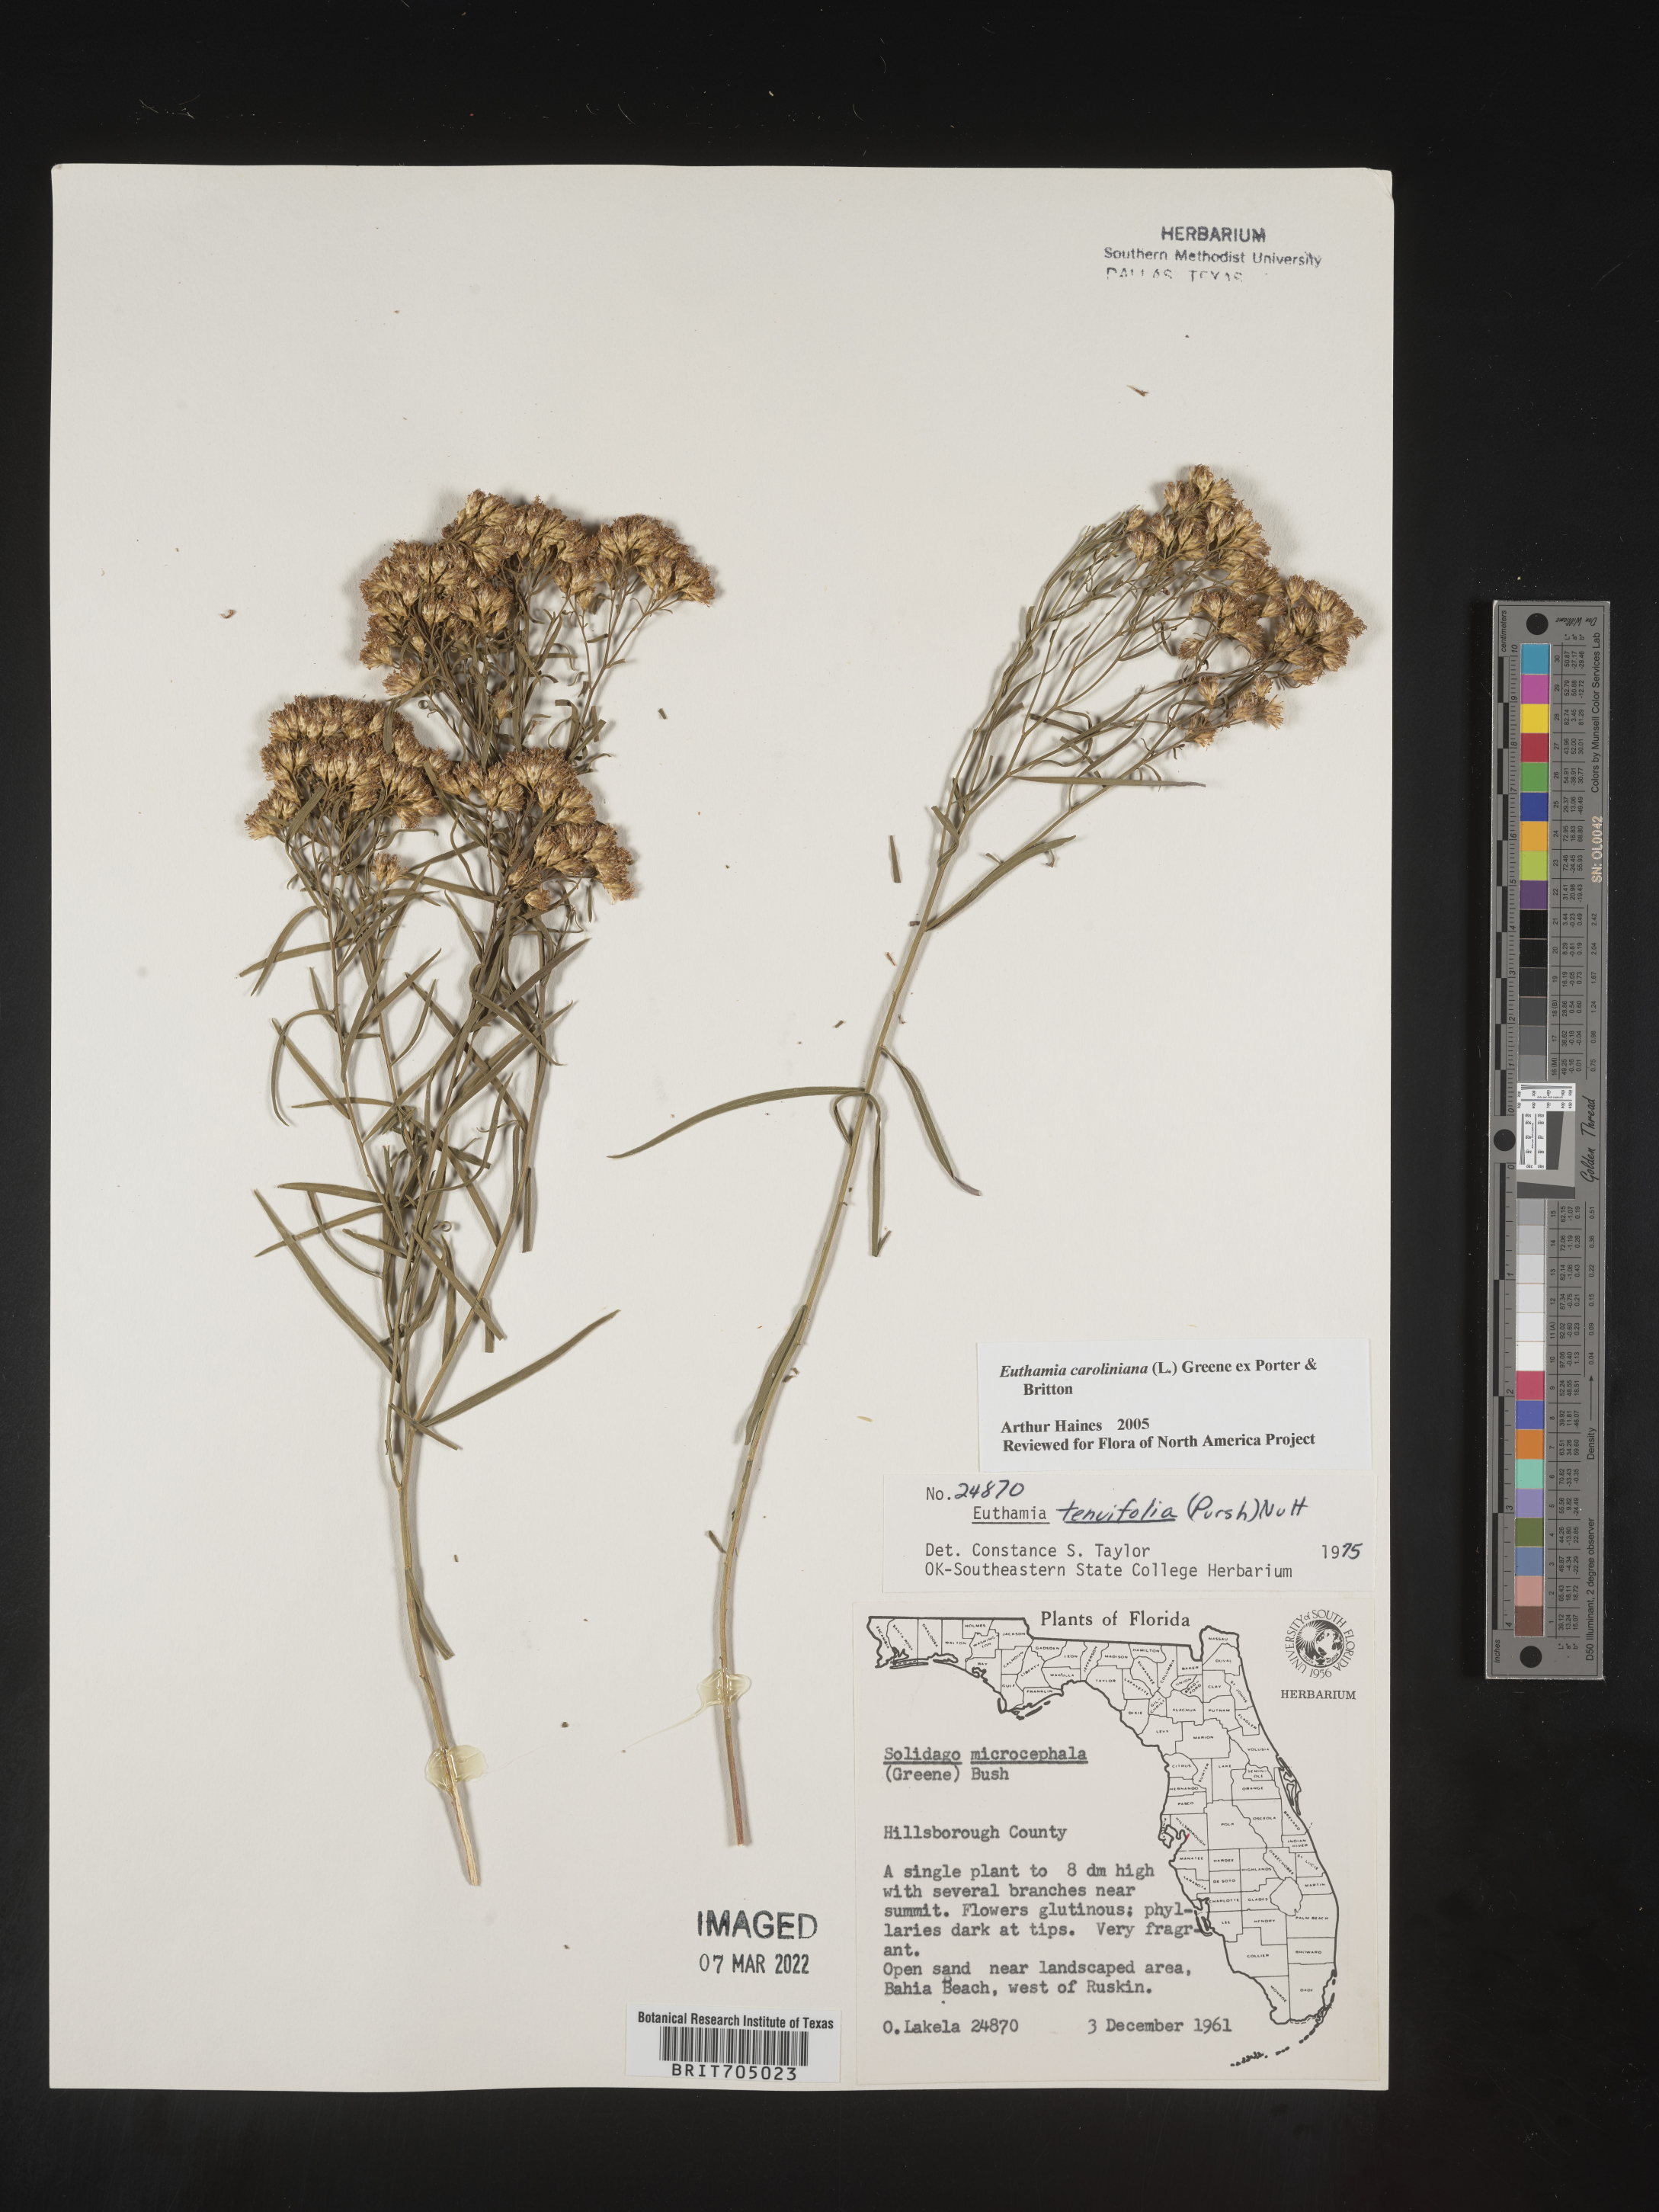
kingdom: Plantae
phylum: Tracheophyta
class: Magnoliopsida
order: Asterales
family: Asteraceae
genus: Euthamia
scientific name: Euthamia caroliniana
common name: Coastal plain goldentop
